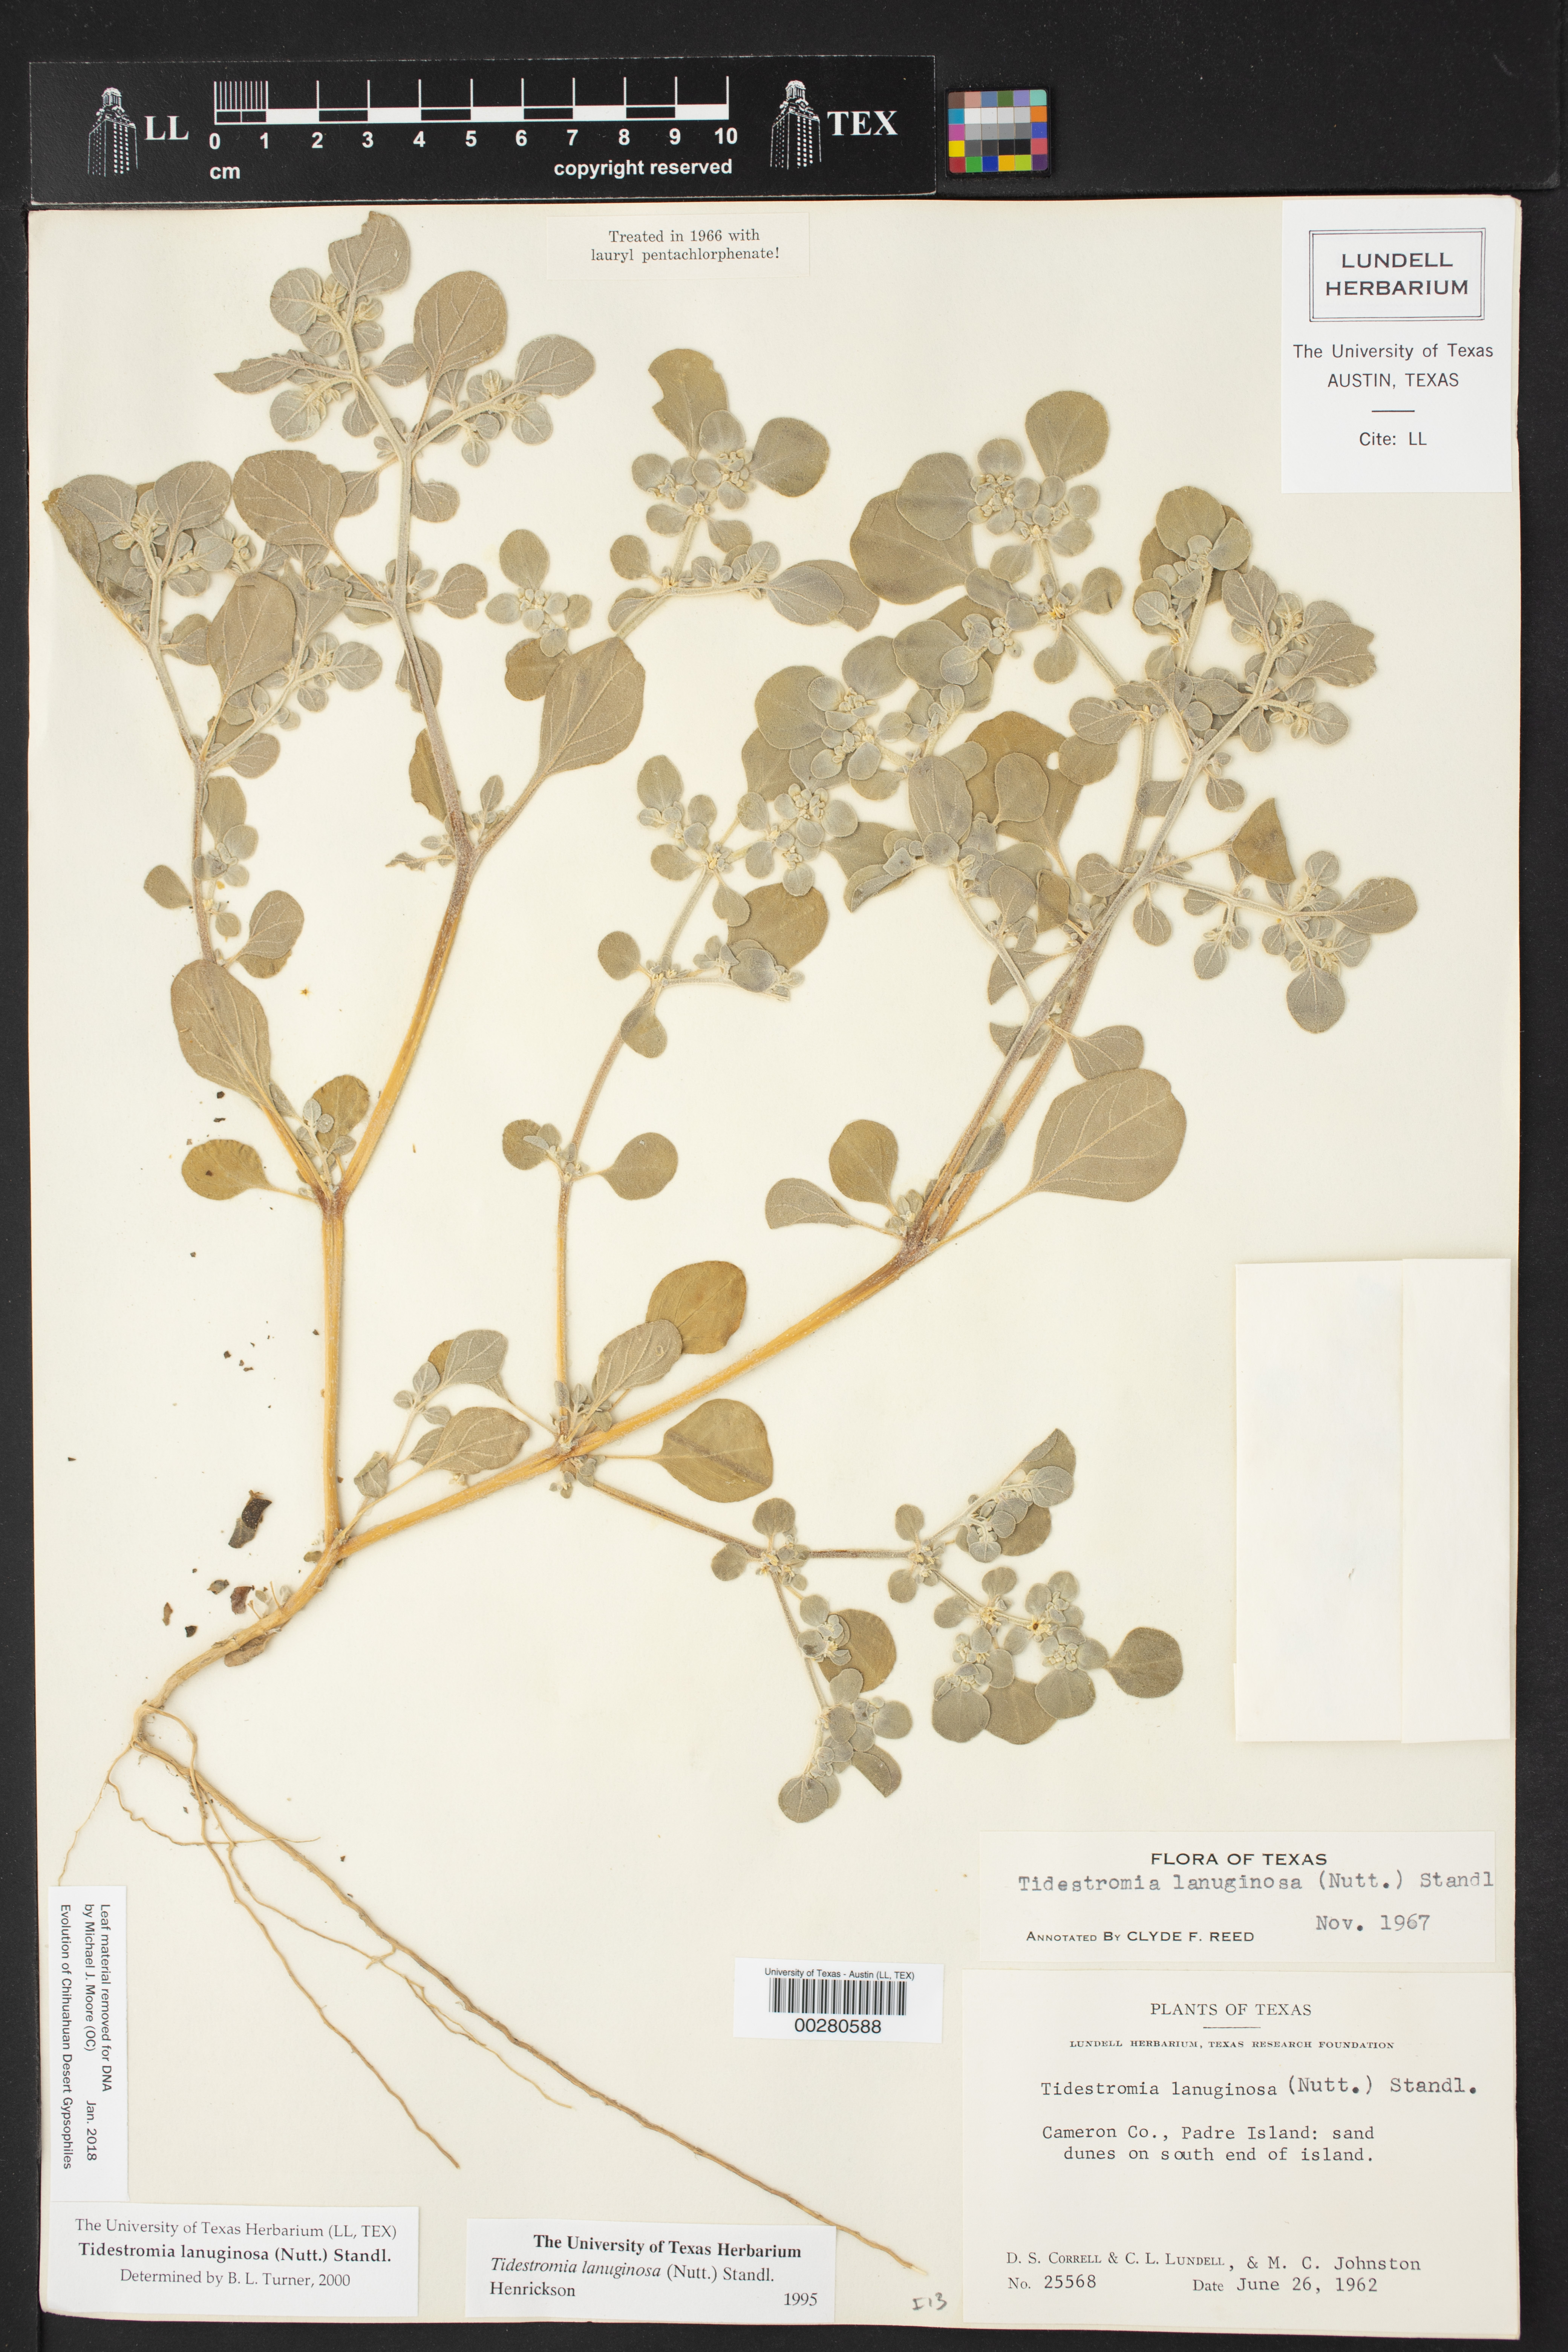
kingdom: Plantae
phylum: Tracheophyta
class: Magnoliopsida
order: Caryophyllales
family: Amaranthaceae
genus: Tidestromia
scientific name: Tidestromia lanuginosa
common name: Woolly tidestromia
